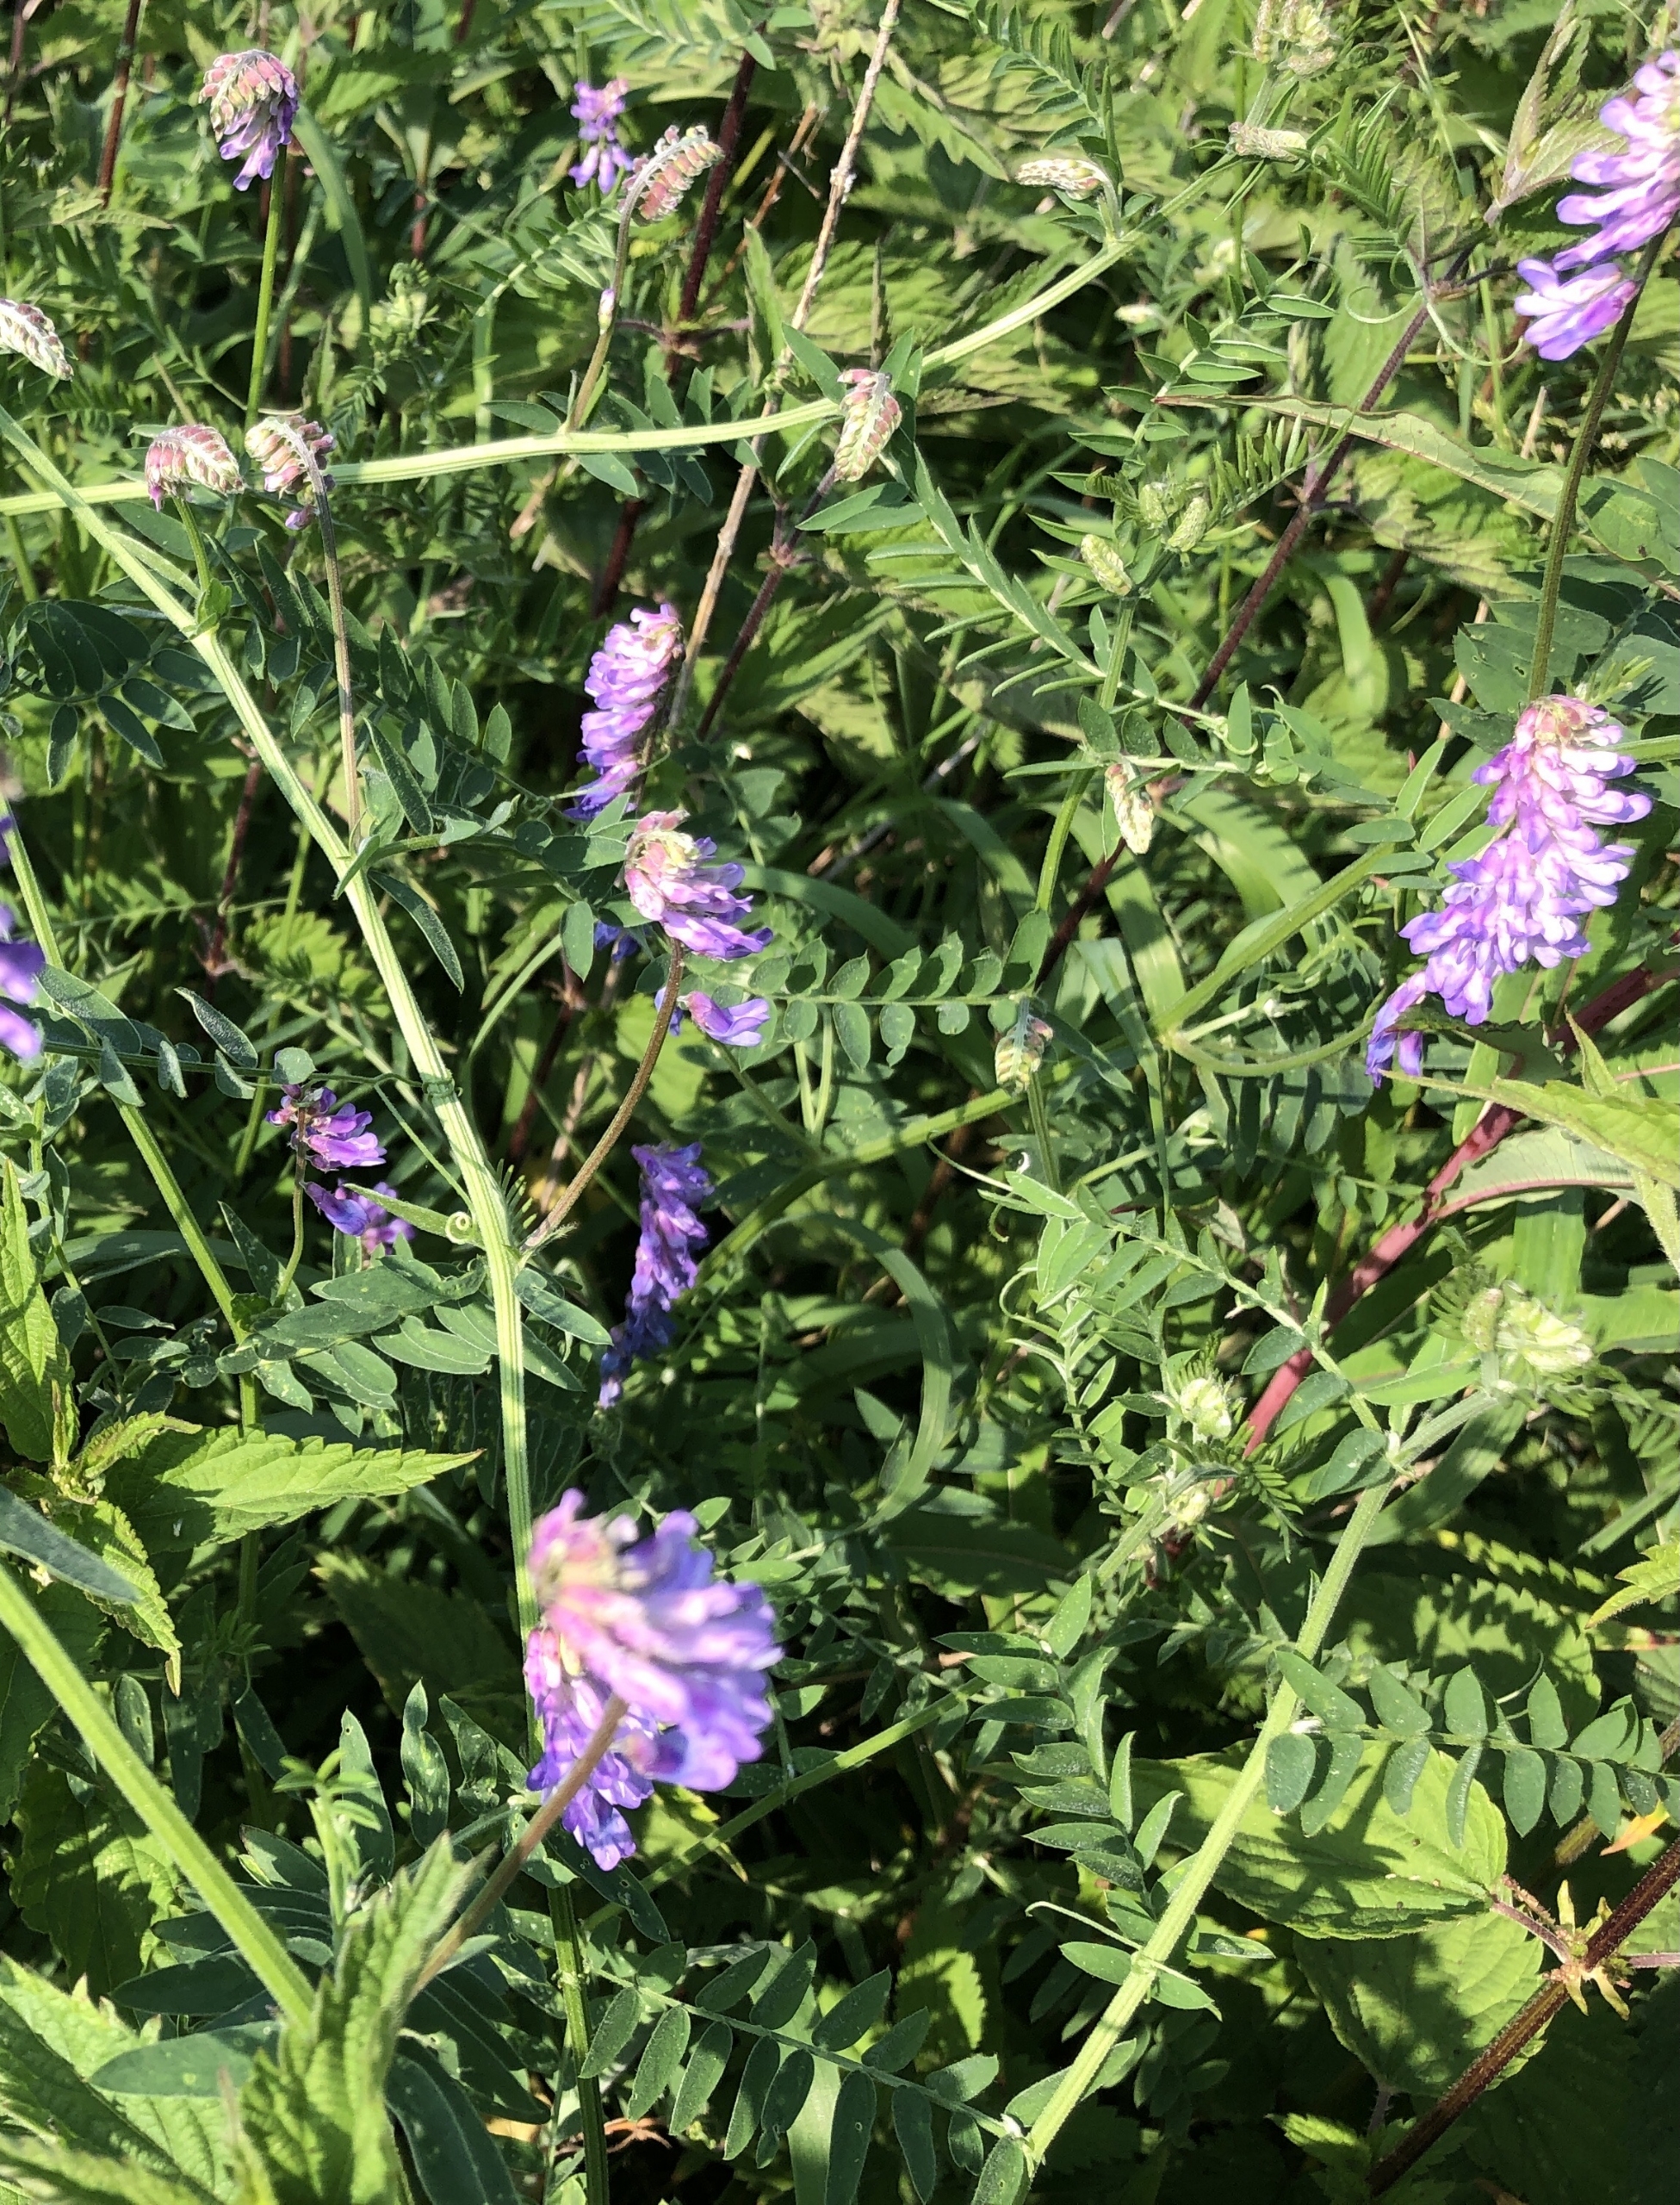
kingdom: Plantae
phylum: Tracheophyta
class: Magnoliopsida
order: Fabales
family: Fabaceae
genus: Vicia
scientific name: Vicia cracca
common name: Muse-vikke
